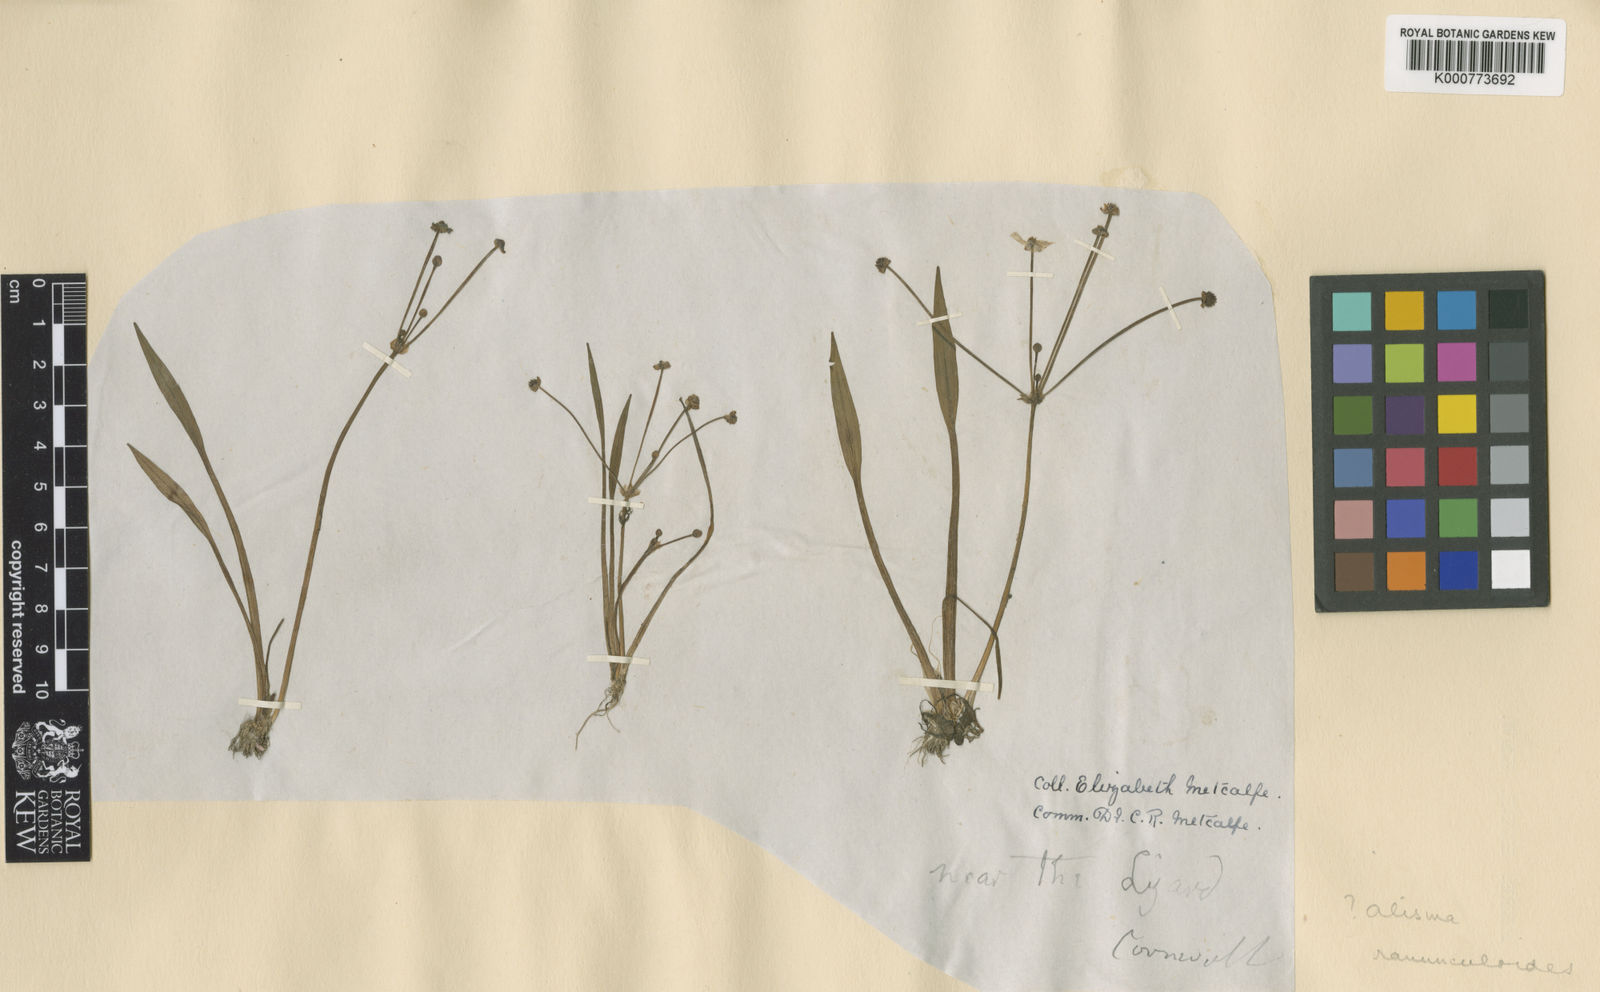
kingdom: Plantae
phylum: Tracheophyta
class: Liliopsida
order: Alismatales
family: Alismataceae
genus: Baldellia
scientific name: Baldellia ranunculoides
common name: Lesser water-plantain
